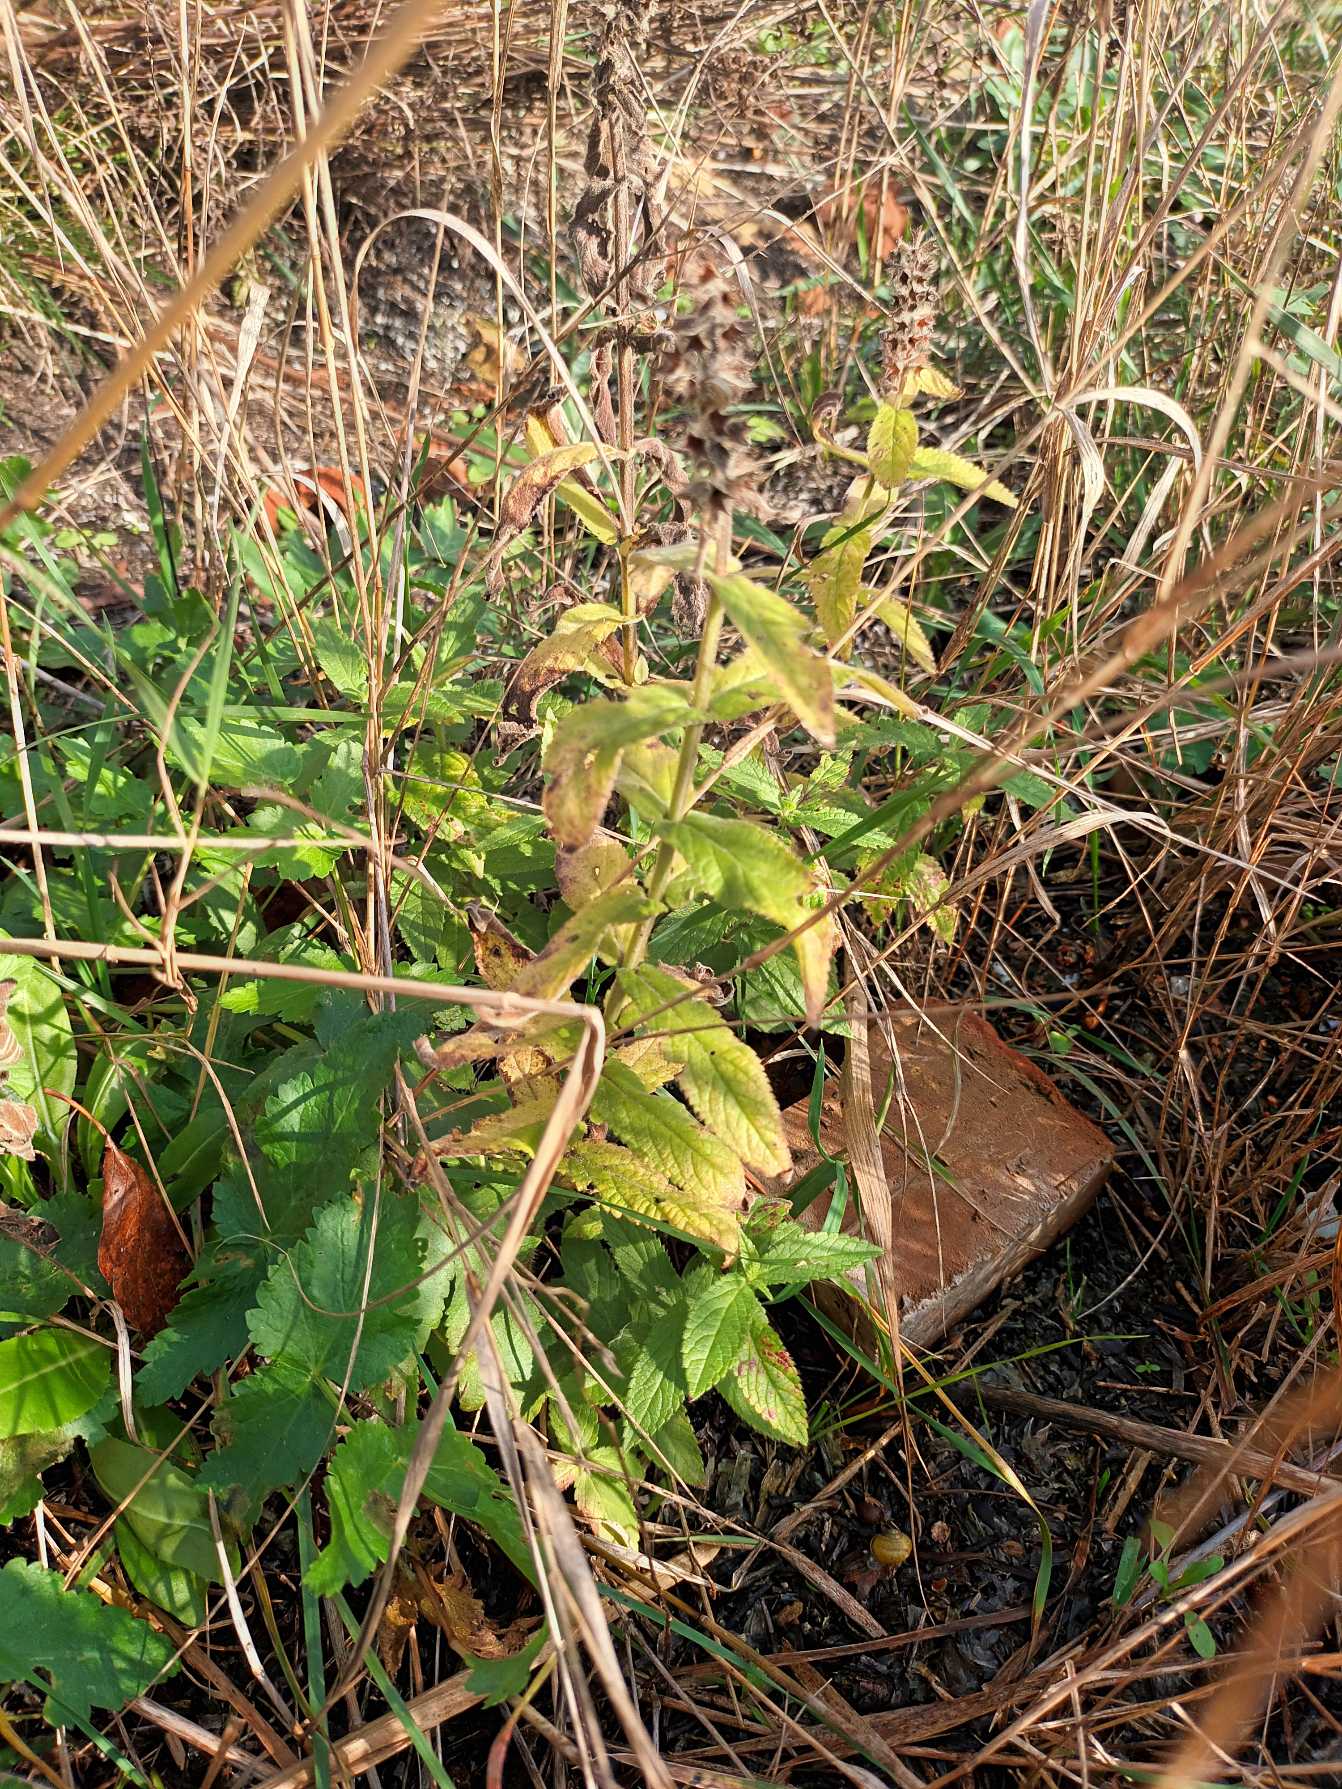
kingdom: Plantae
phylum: Tracheophyta
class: Magnoliopsida
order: Lamiales
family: Lamiaceae
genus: Stachys
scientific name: Stachys palustris
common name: Kær-galtetand
